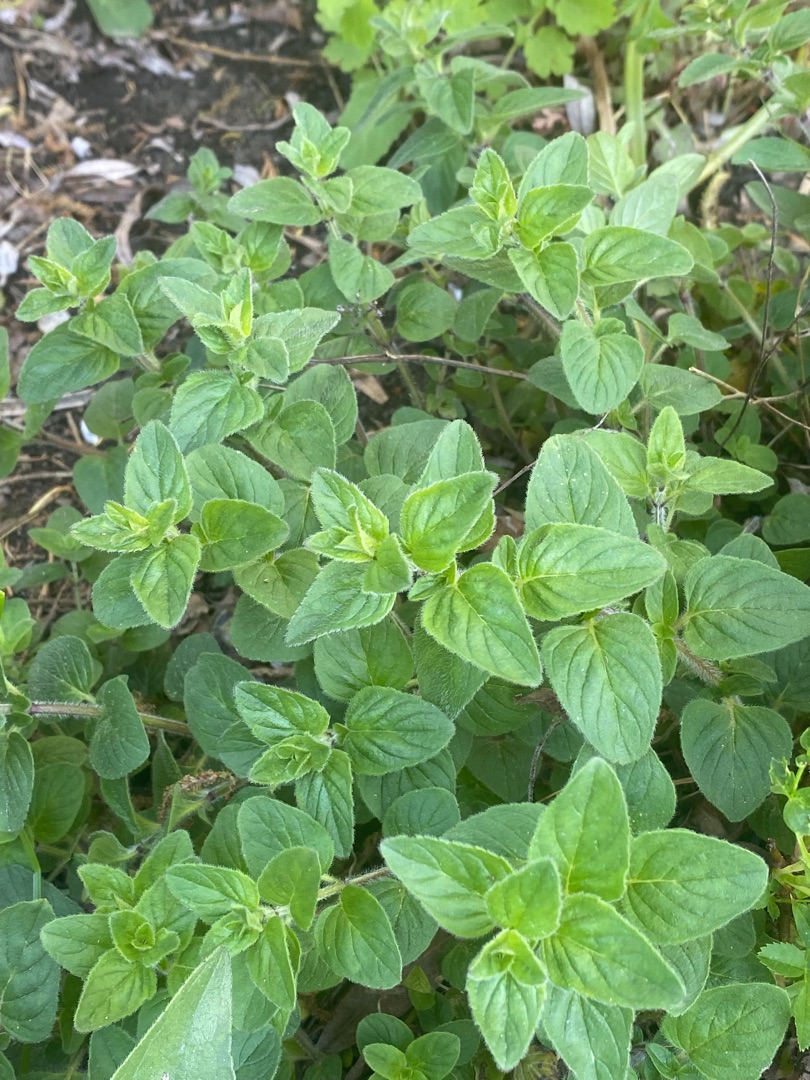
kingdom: Plantae
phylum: Tracheophyta
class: Magnoliopsida
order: Lamiales
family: Lamiaceae
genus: Origanum
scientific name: Origanum vulgare
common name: Merian
